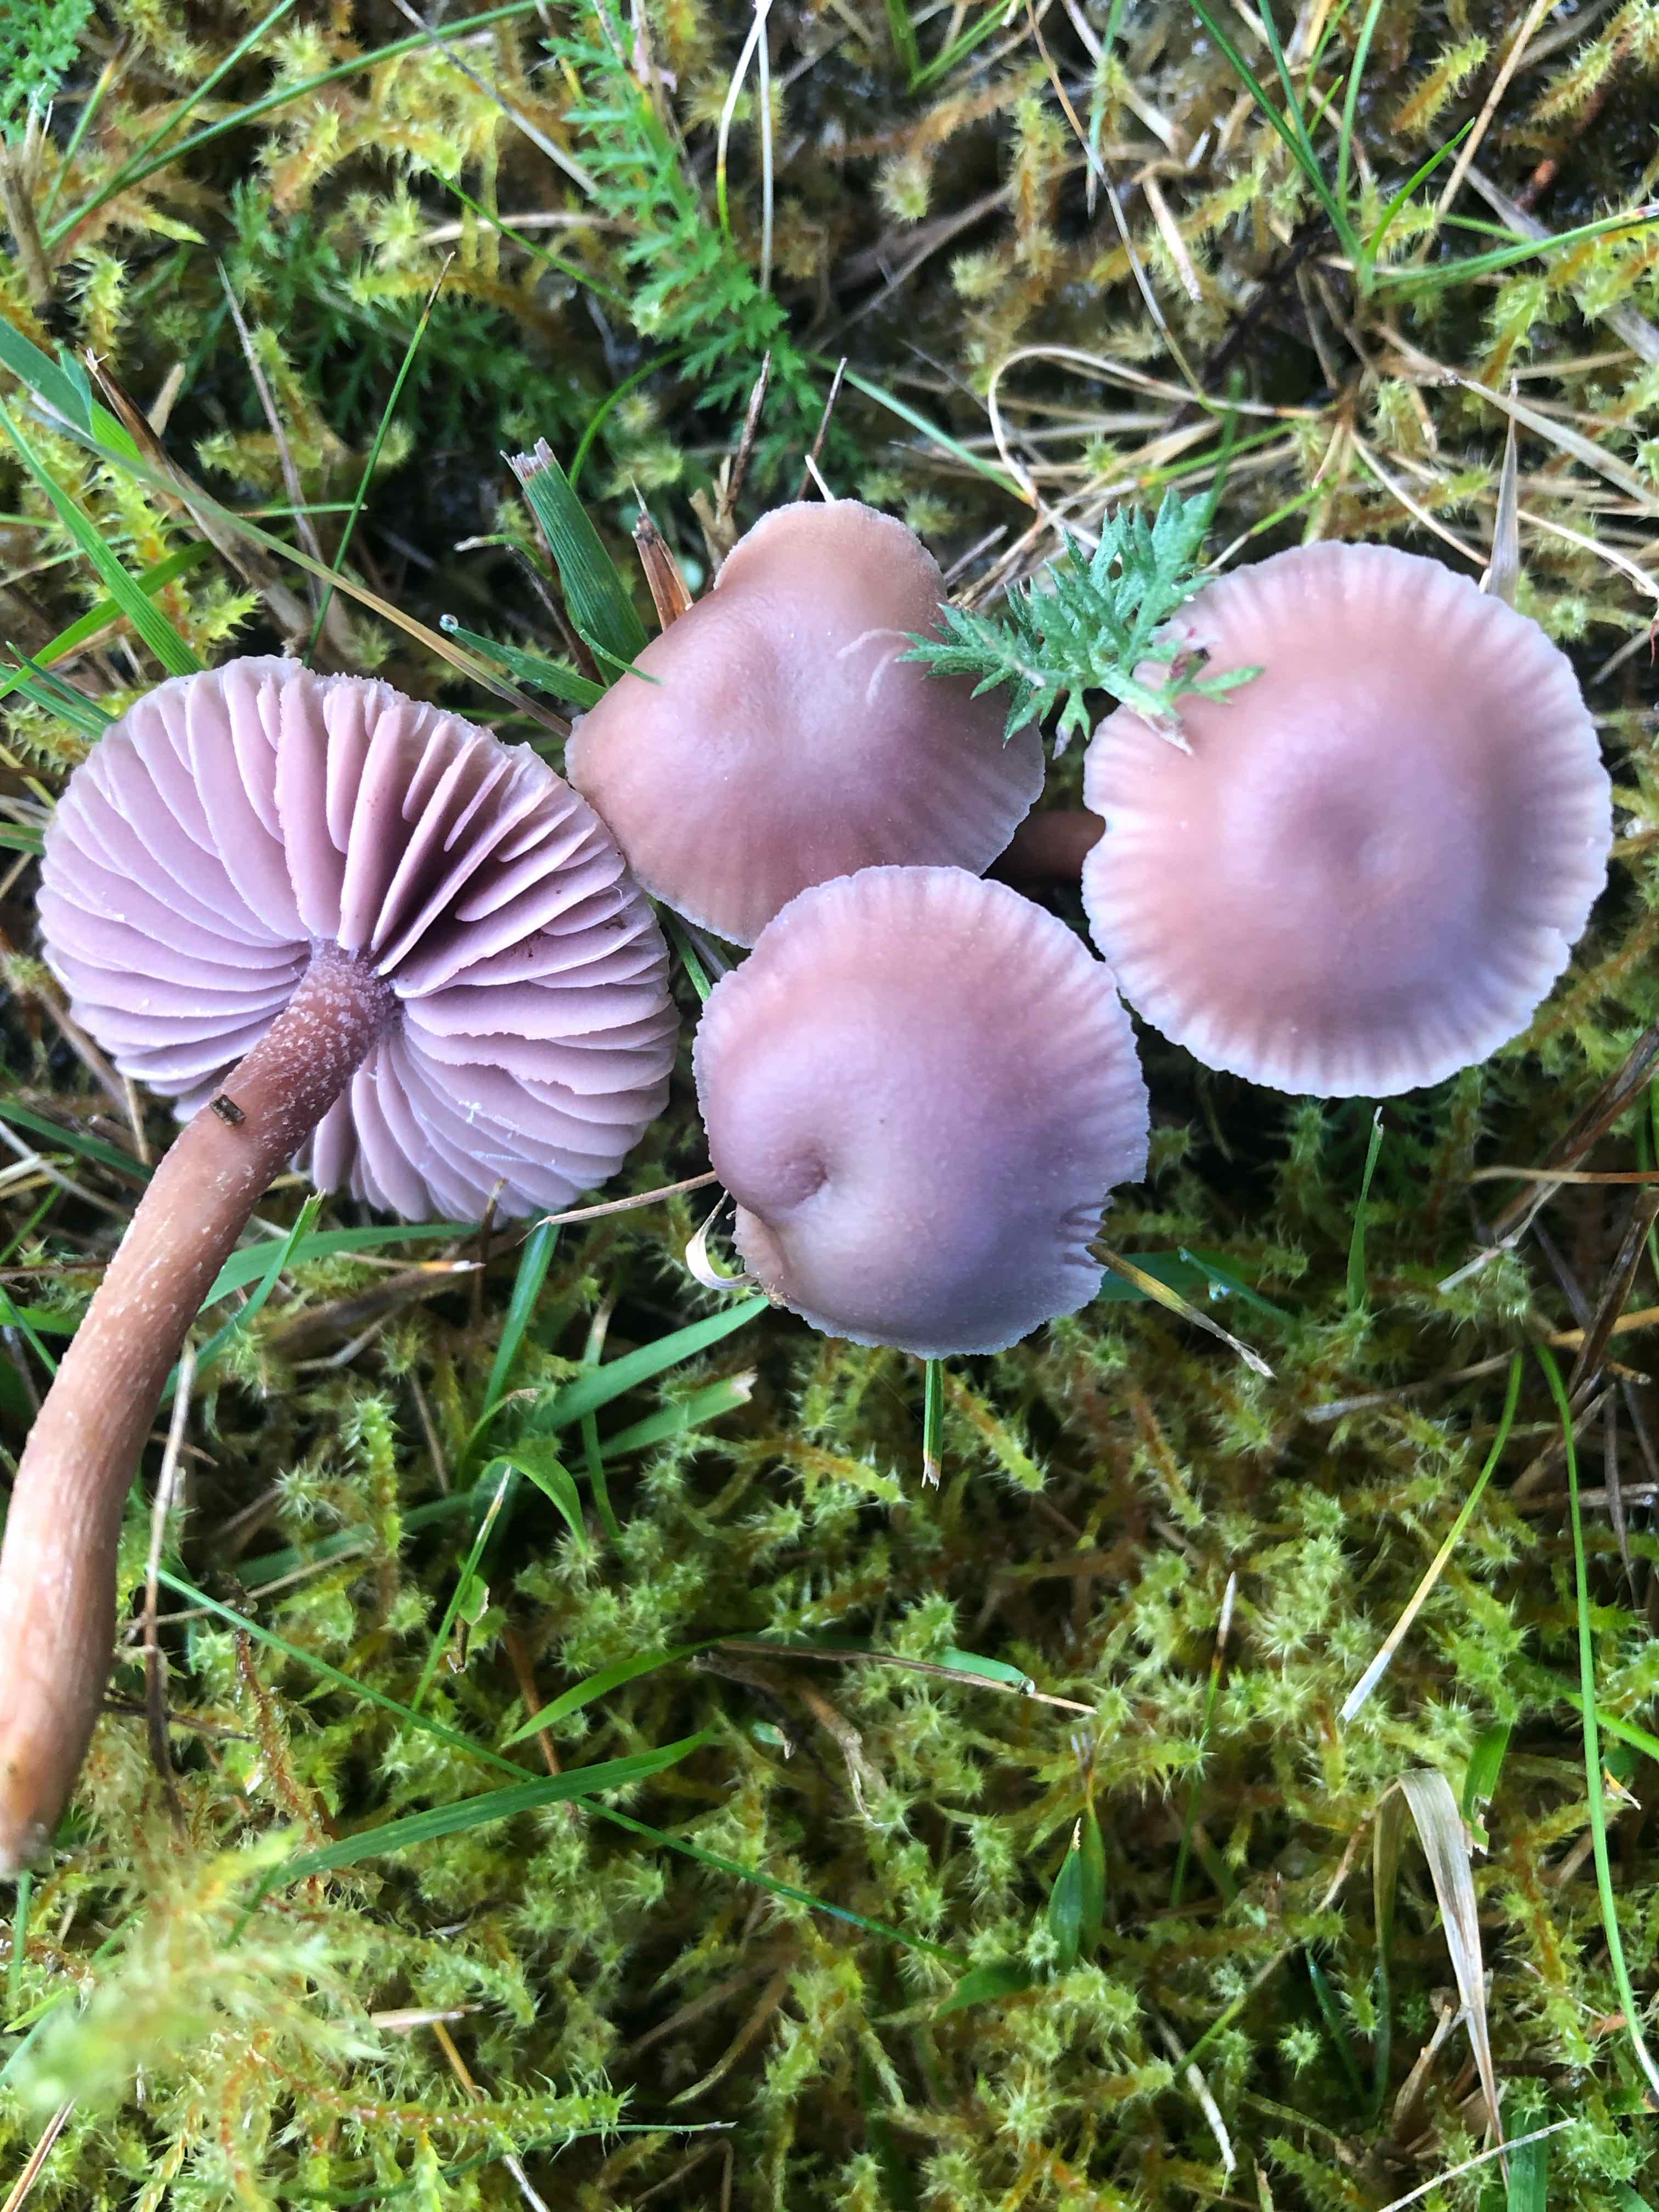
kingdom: Fungi
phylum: Basidiomycota
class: Agaricomycetes
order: Agaricales
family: Hydnangiaceae
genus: Laccaria
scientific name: Laccaria amethystina
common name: violet ametysthat
